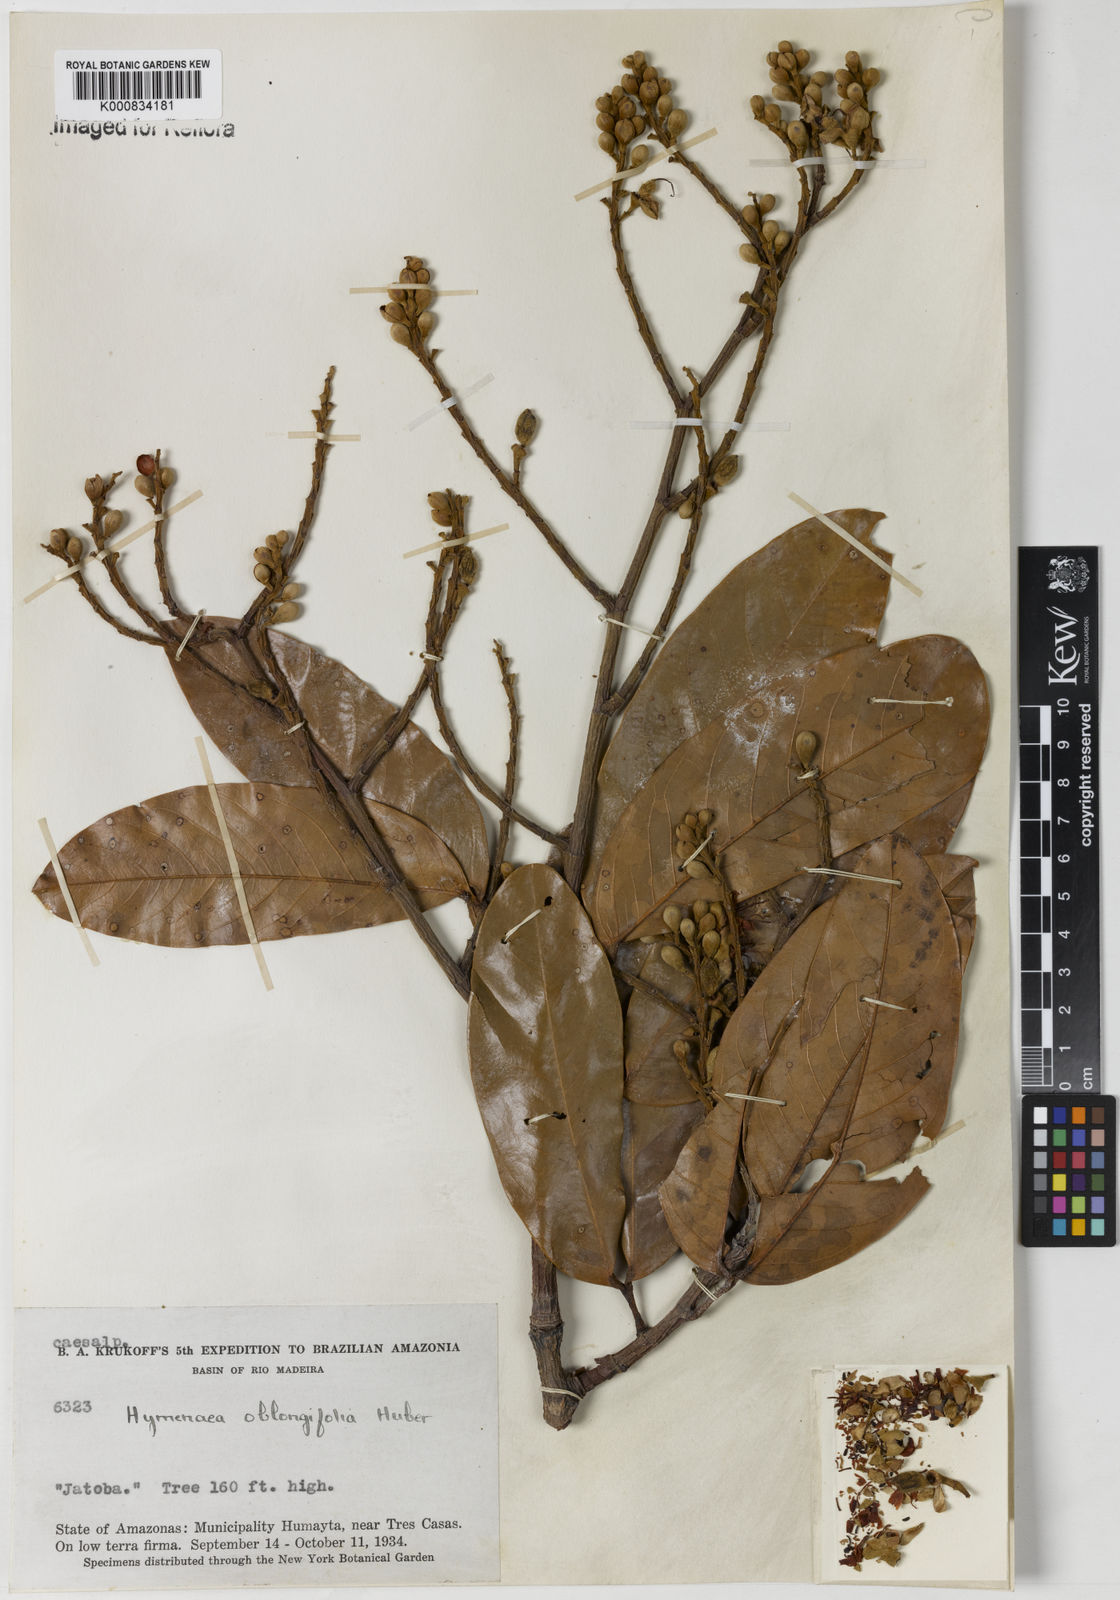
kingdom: Plantae
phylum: Tracheophyta
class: Magnoliopsida
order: Fabales
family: Fabaceae
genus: Hymenaea
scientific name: Hymenaea oblongifolia
